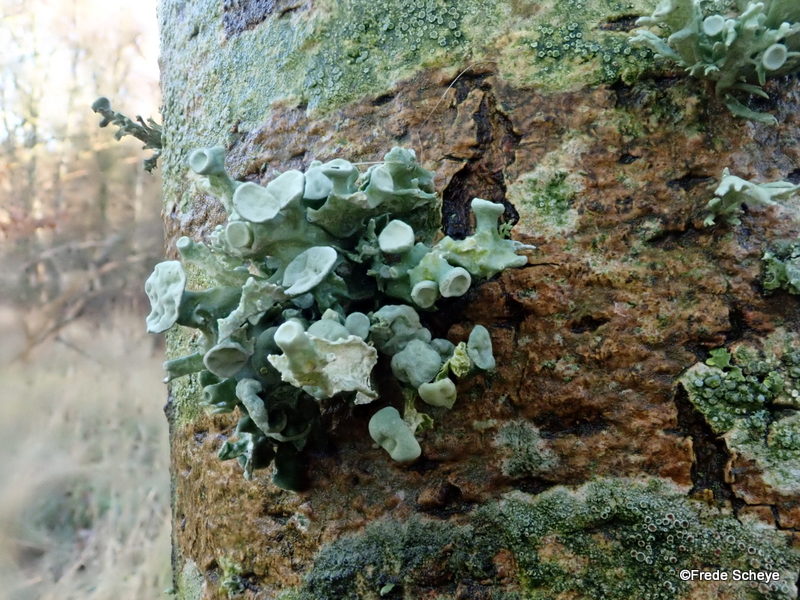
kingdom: Fungi
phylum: Ascomycota
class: Lecanoromycetes
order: Lecanorales
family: Ramalinaceae
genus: Ramalina
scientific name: Ramalina fastigiata
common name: tue-grenlav
